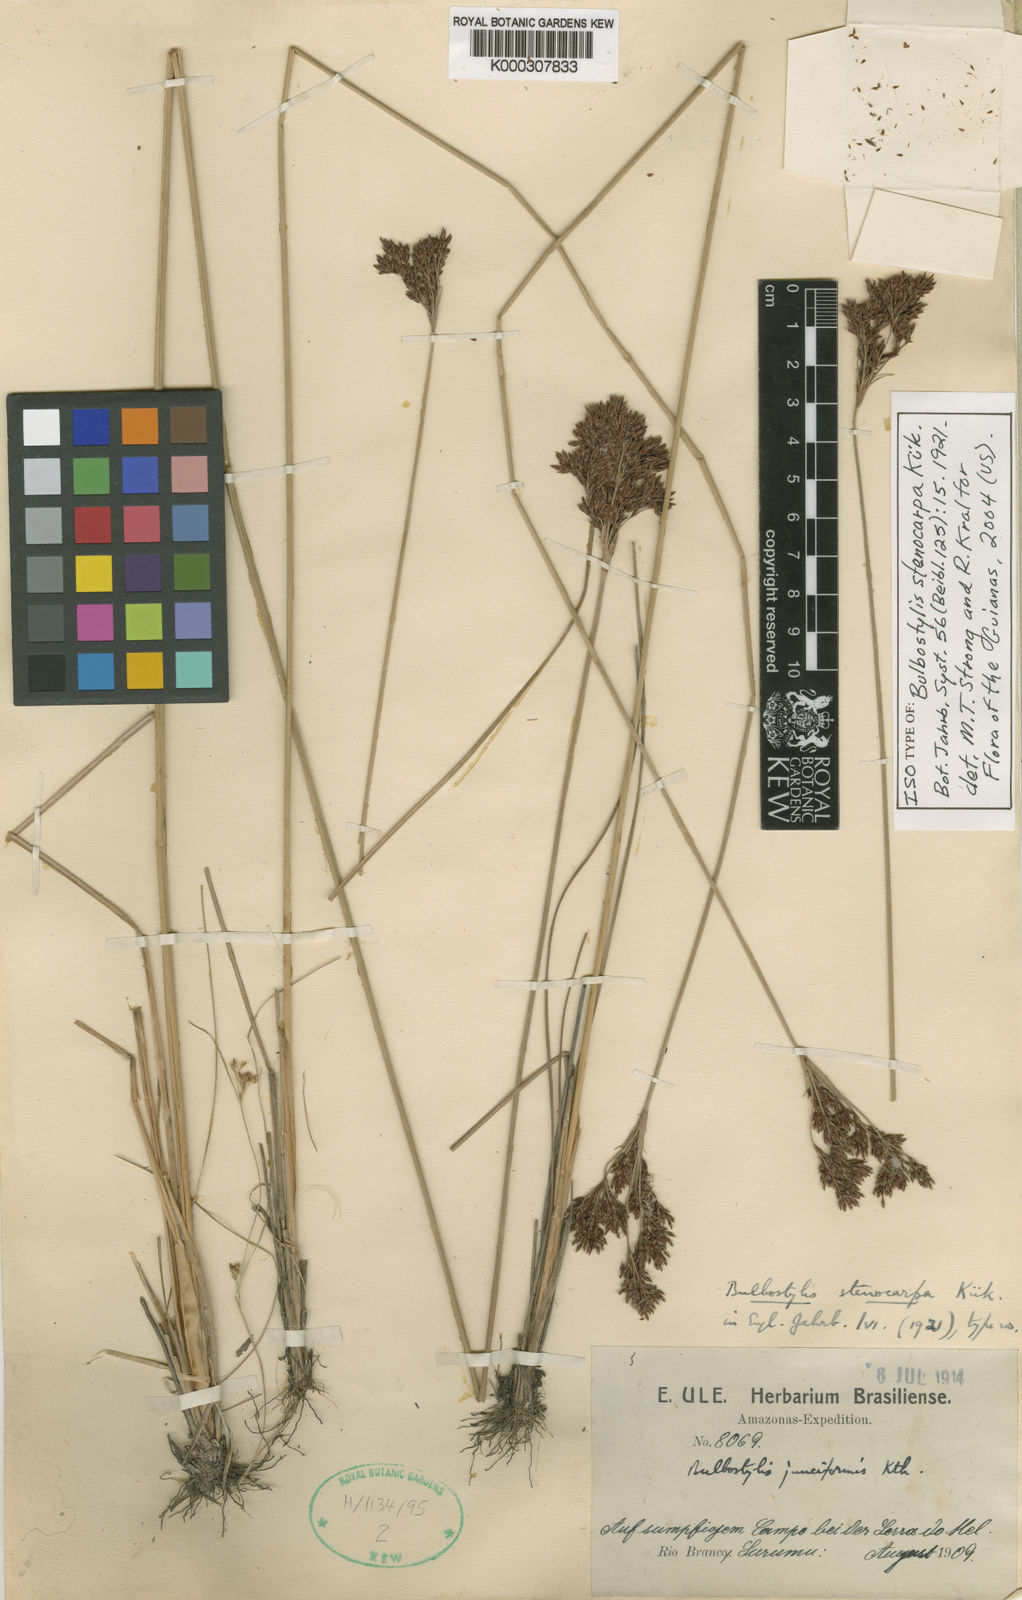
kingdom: Plantae
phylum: Tracheophyta
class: Liliopsida
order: Poales
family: Cyperaceae
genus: Bulbostylis
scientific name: Bulbostylis
